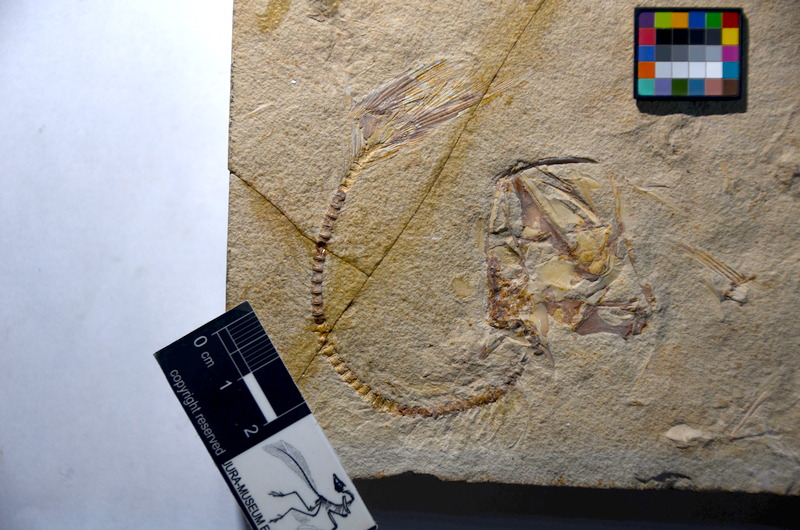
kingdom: Animalia
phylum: Chordata
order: Elopiformes
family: Anaethalionidae
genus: Anaethalion
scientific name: Anaethalion knorri
